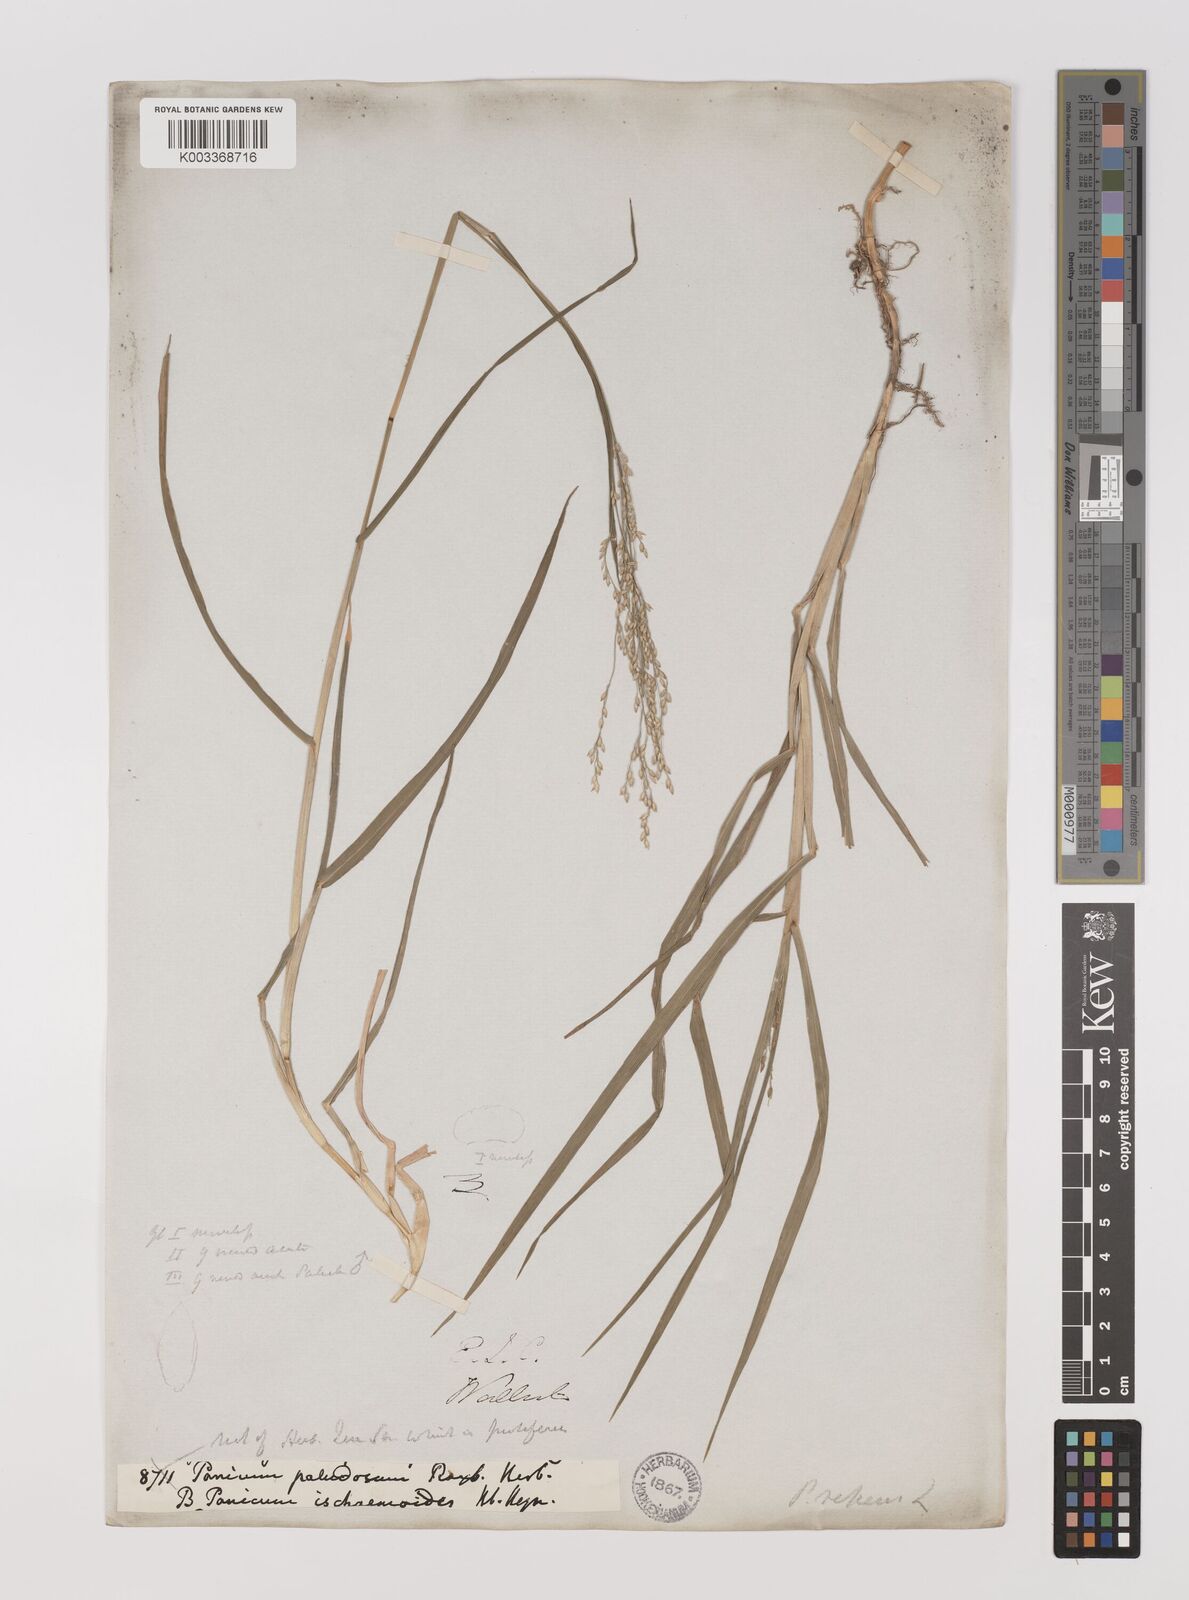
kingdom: Plantae
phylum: Tracheophyta
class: Liliopsida
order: Poales
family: Poaceae
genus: Panicum
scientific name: Panicum repens
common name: Torpedo grass
